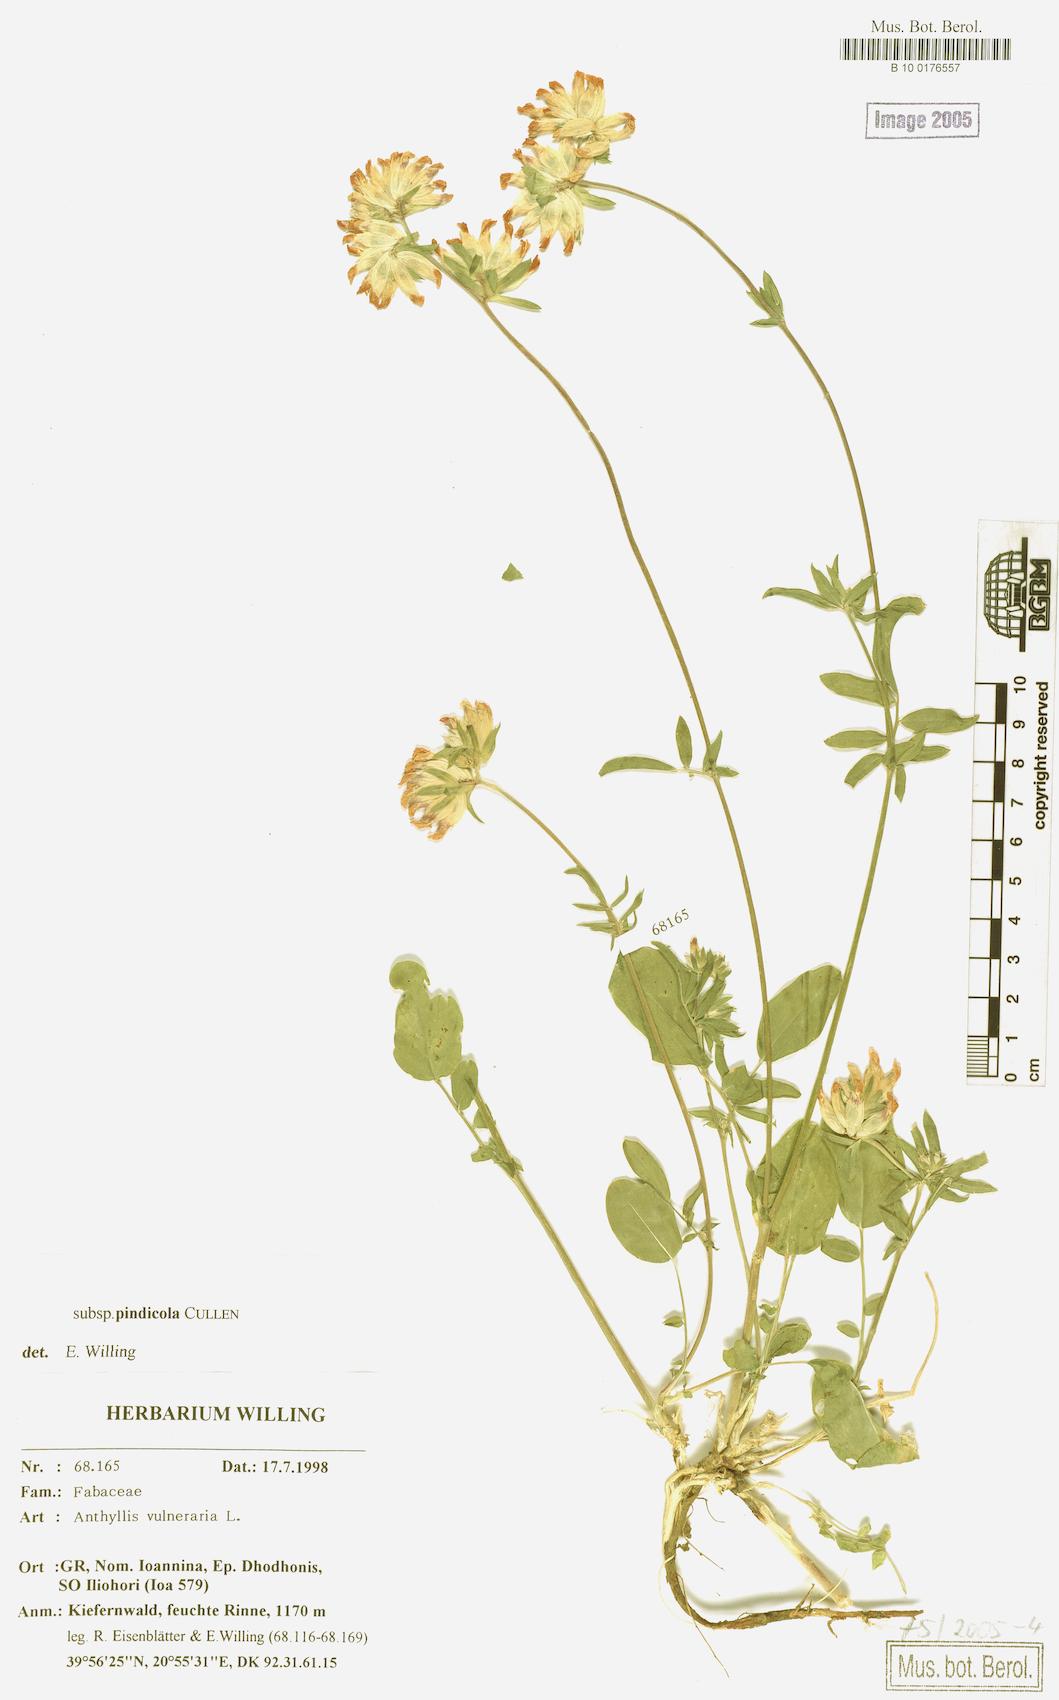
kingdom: Plantae
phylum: Tracheophyta
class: Magnoliopsida
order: Fabales
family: Fabaceae
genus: Anthyllis
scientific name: Anthyllis vulneraria
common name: Kidney vetch
